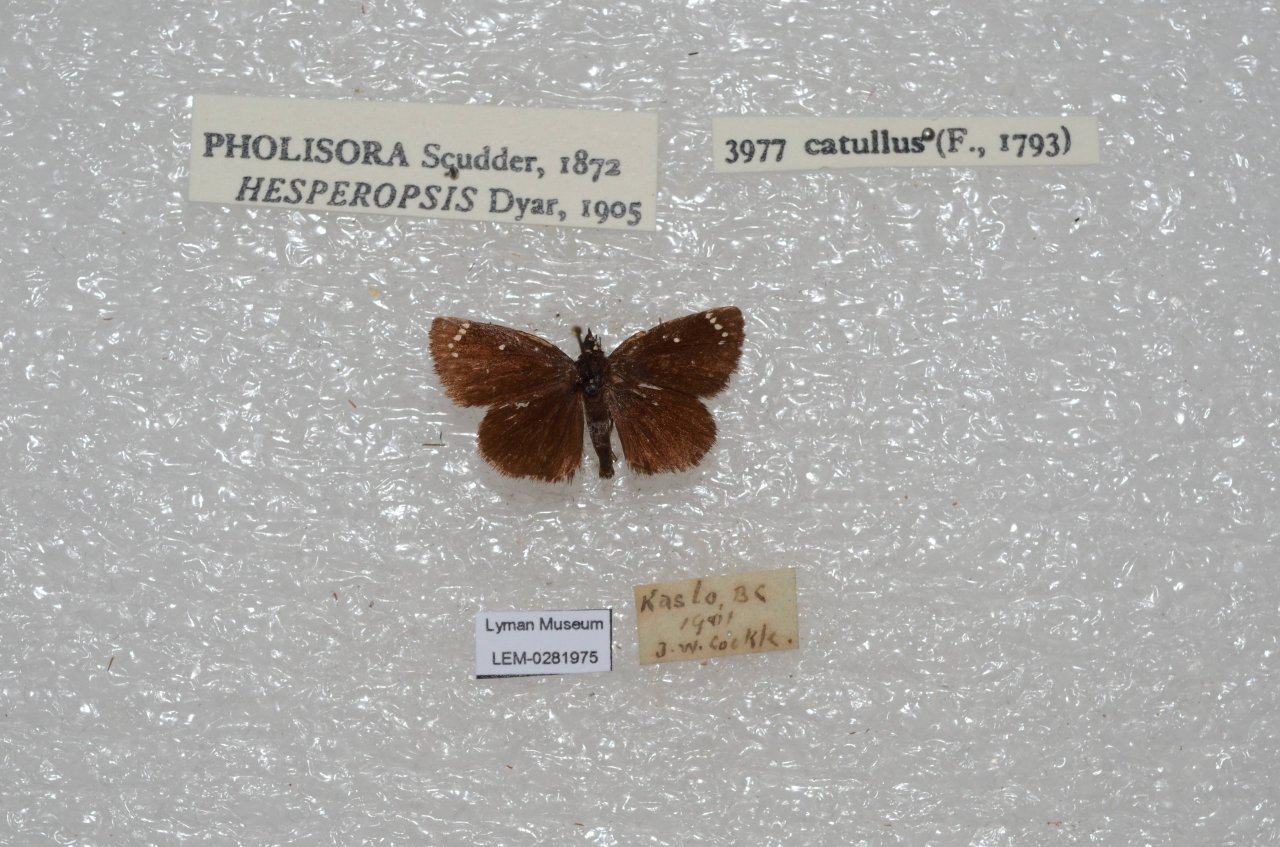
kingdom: Animalia
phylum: Arthropoda
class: Insecta
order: Lepidoptera
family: Hesperiidae
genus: Pholisora
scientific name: Pholisora catullus
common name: Common Sootywing
